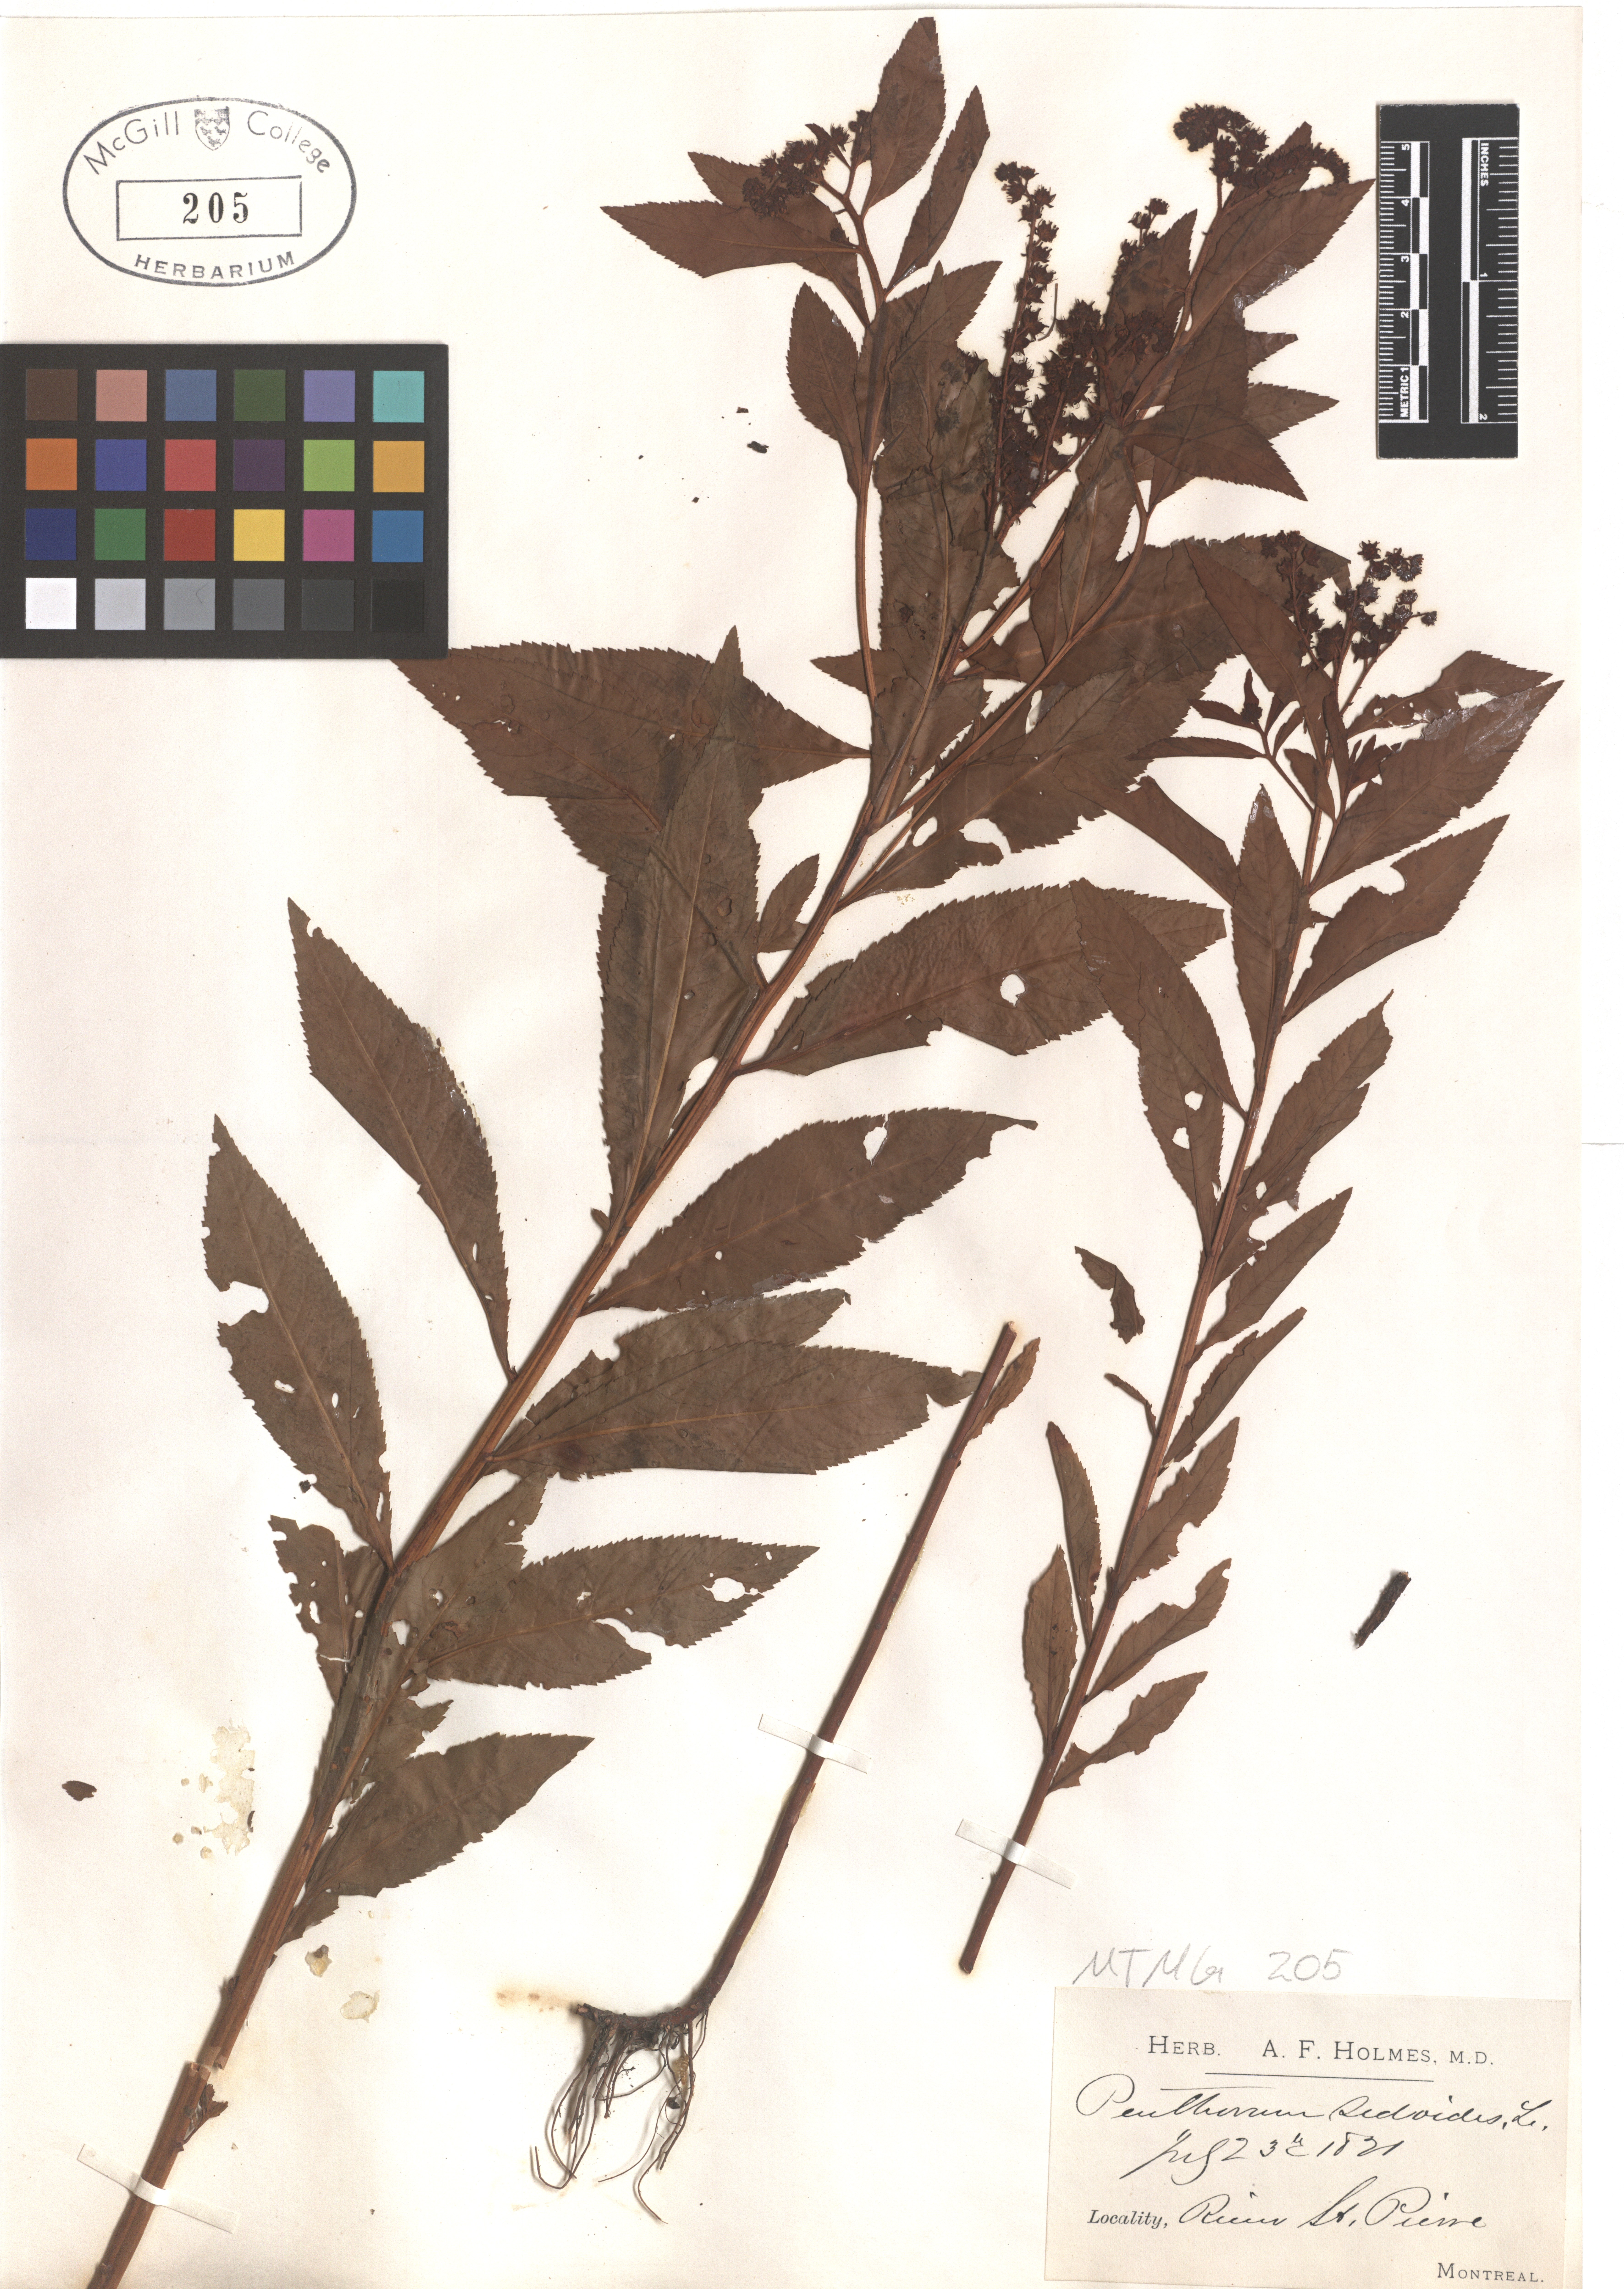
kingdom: Plantae
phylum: Tracheophyta
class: Magnoliopsida
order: Saxifragales
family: Penthoraceae
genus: Penthorum
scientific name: Penthorum sedoides
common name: Ditch stonecrop
